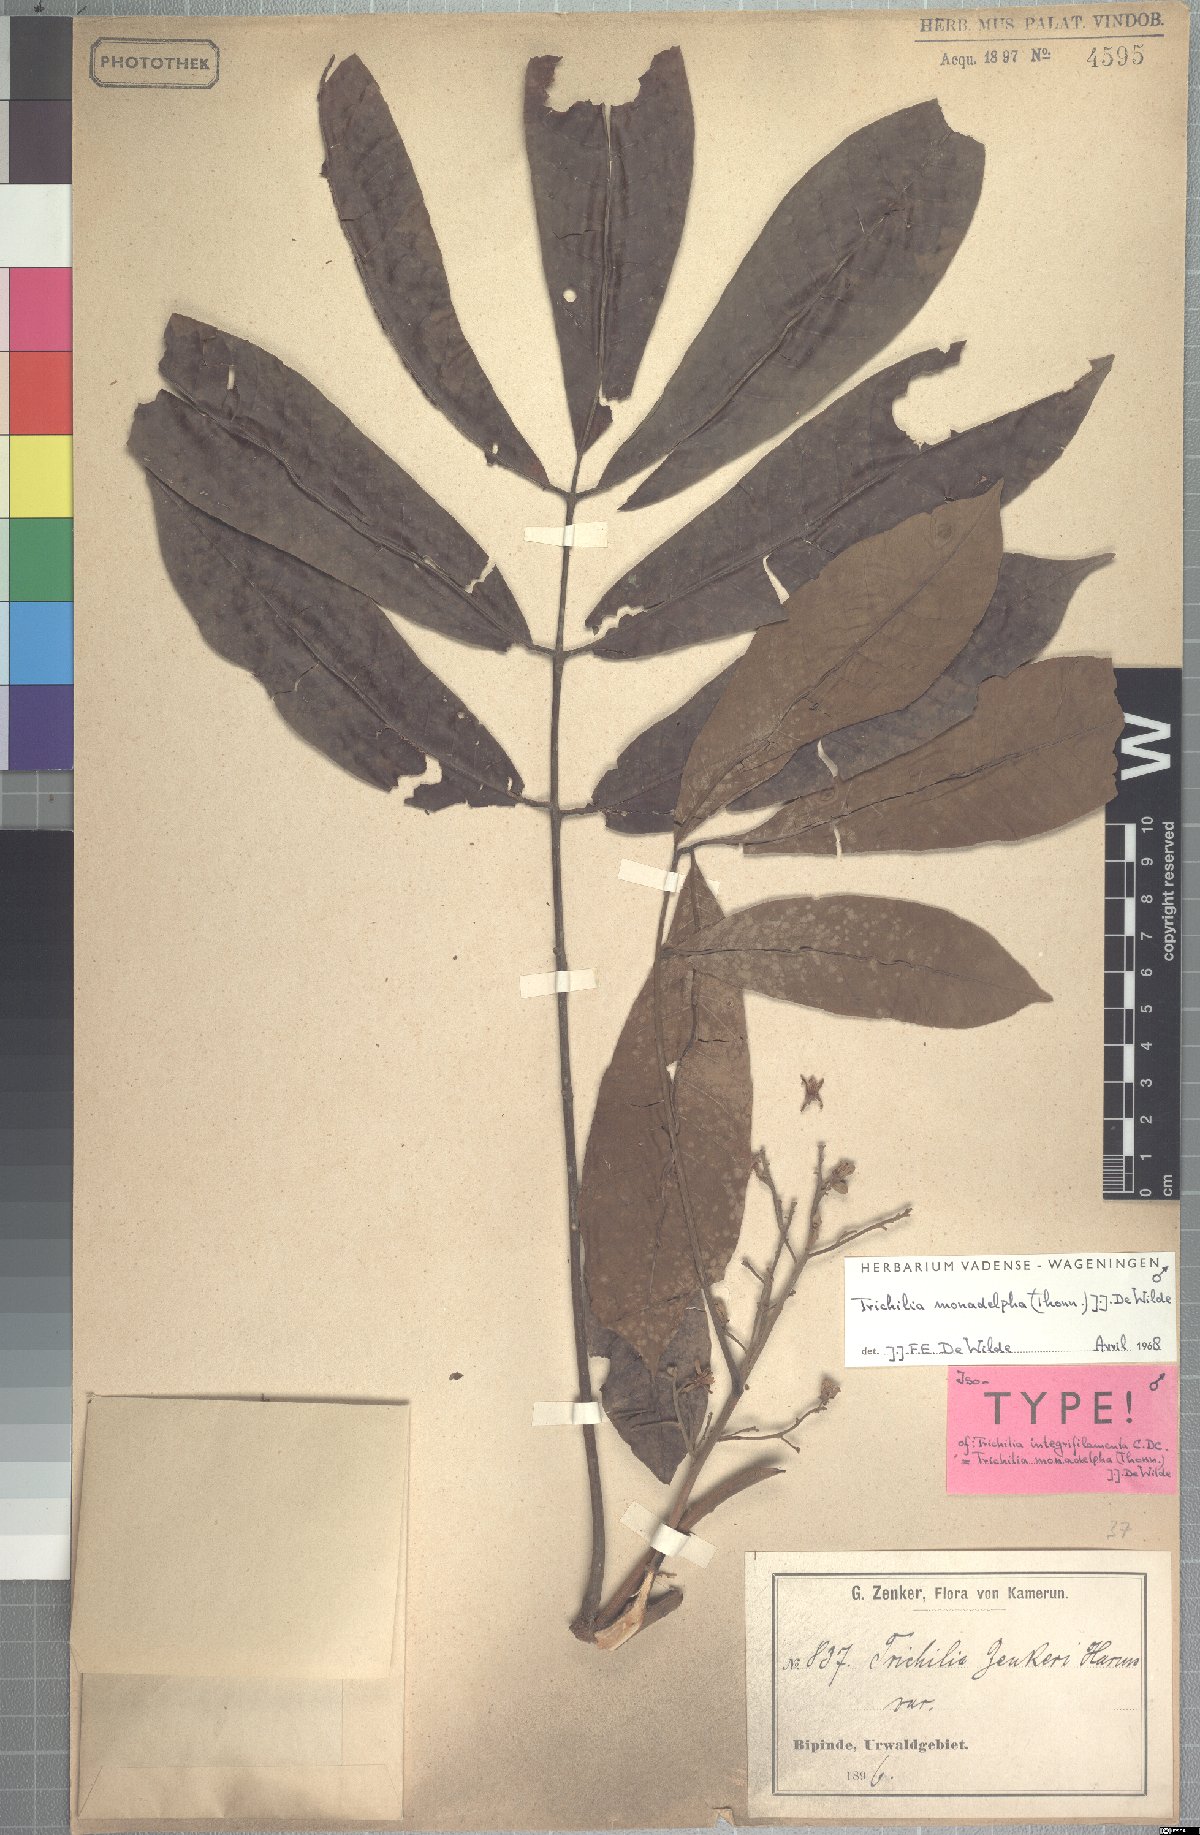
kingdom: Plantae
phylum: Tracheophyta
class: Magnoliopsida
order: Sapindales
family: Meliaceae
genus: Trichilia
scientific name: Trichilia monadelpha
